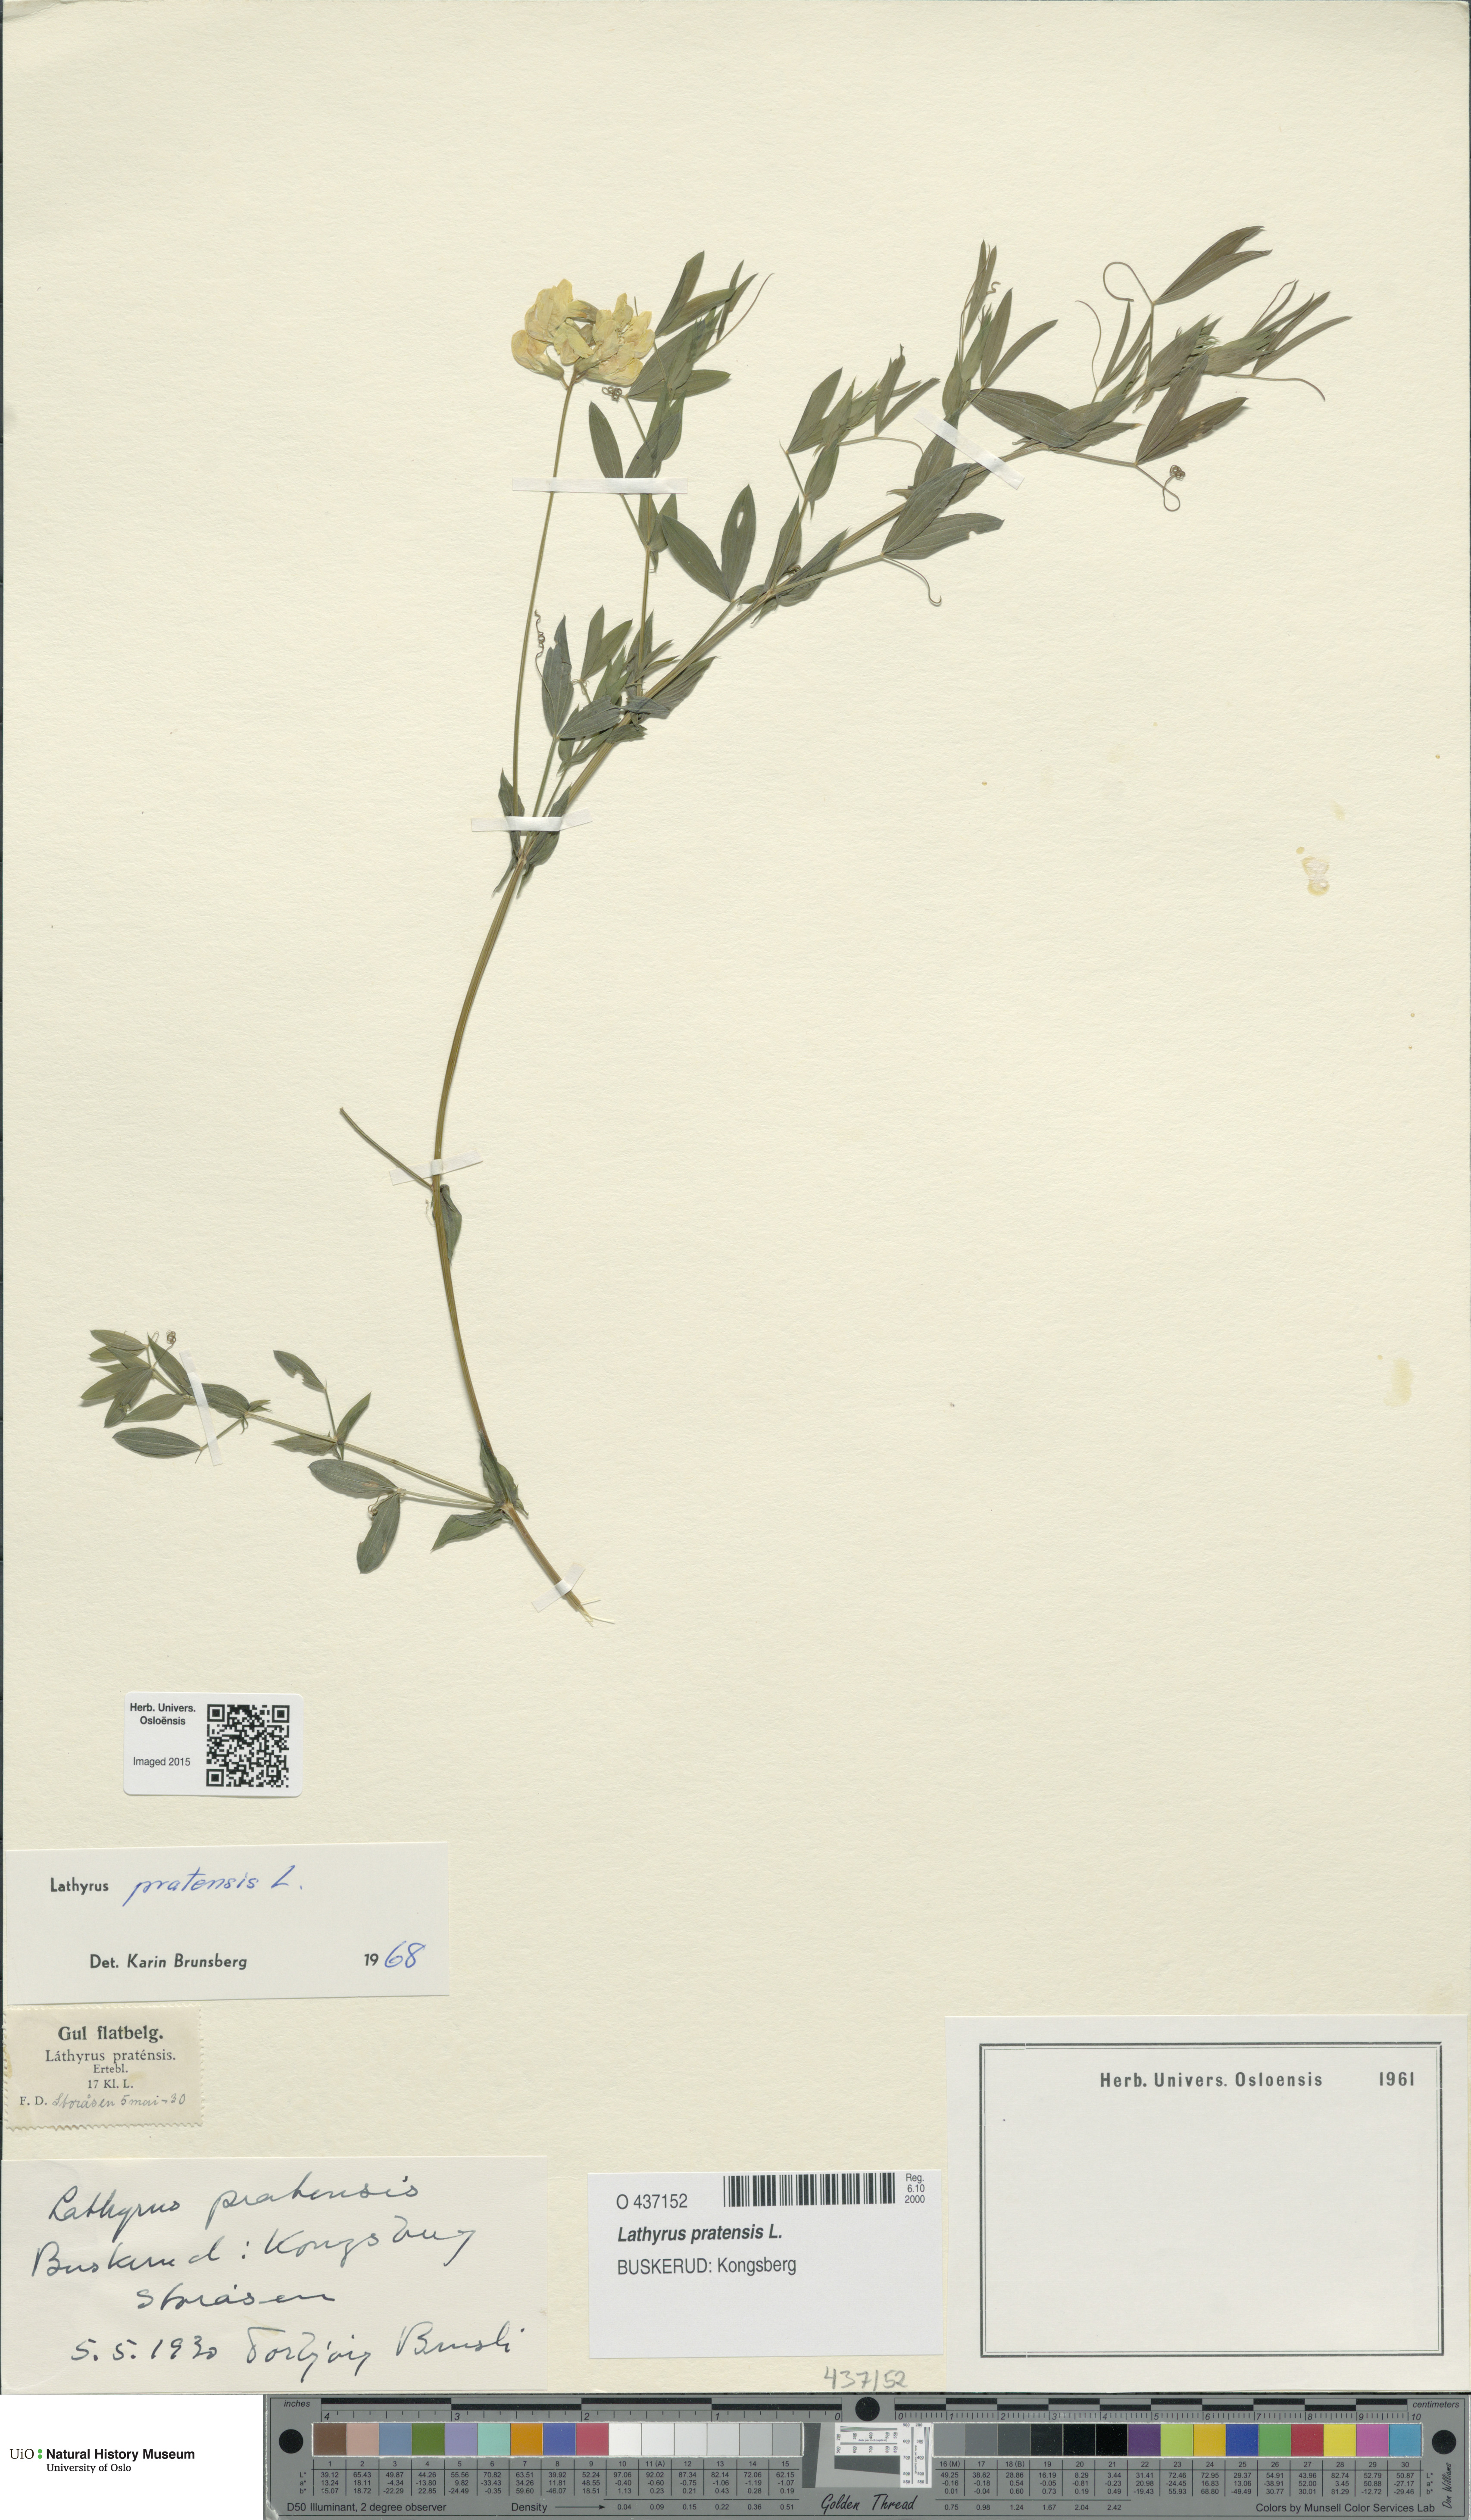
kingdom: Plantae
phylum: Tracheophyta
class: Magnoliopsida
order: Fabales
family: Fabaceae
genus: Lathyrus
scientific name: Lathyrus pratensis
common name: Meadow vetchling
